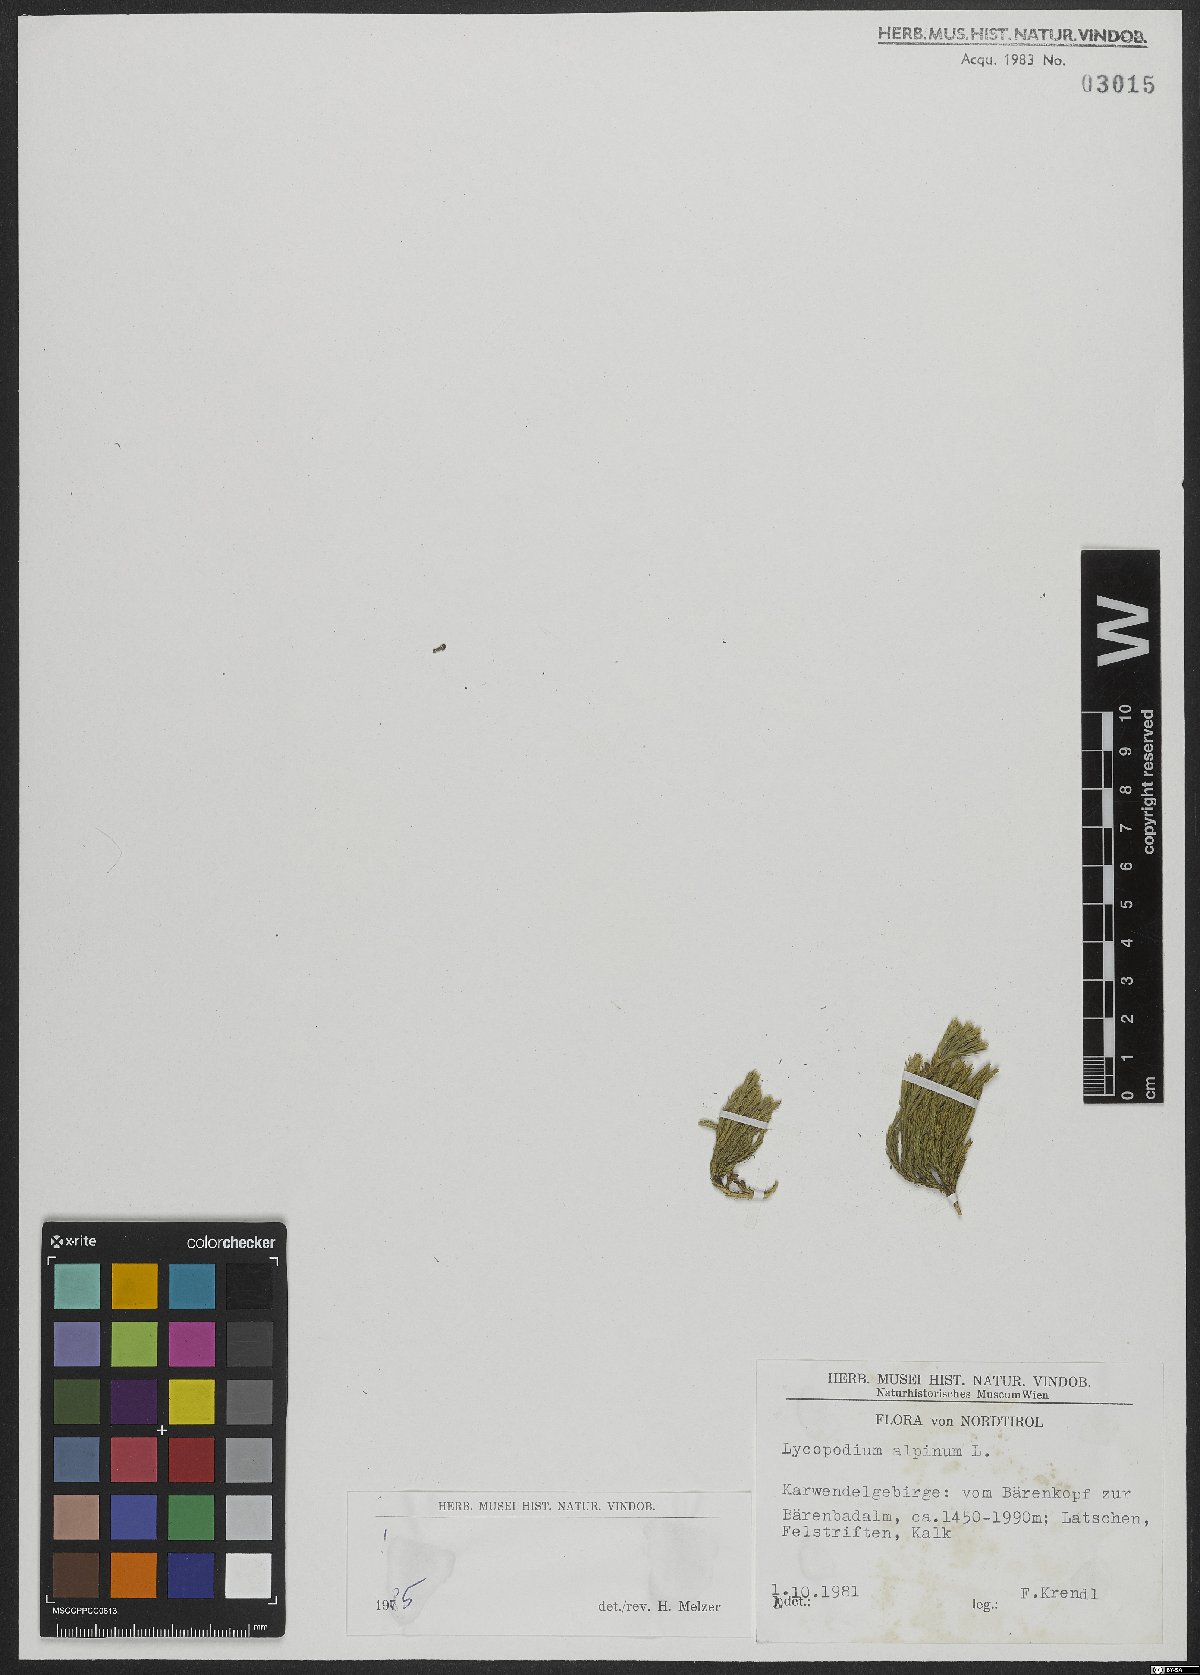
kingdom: Plantae
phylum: Tracheophyta
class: Lycopodiopsida
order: Lycopodiales
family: Lycopodiaceae
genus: Diphasiastrum
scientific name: Diphasiastrum alpinum
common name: Alpine clubmoss
